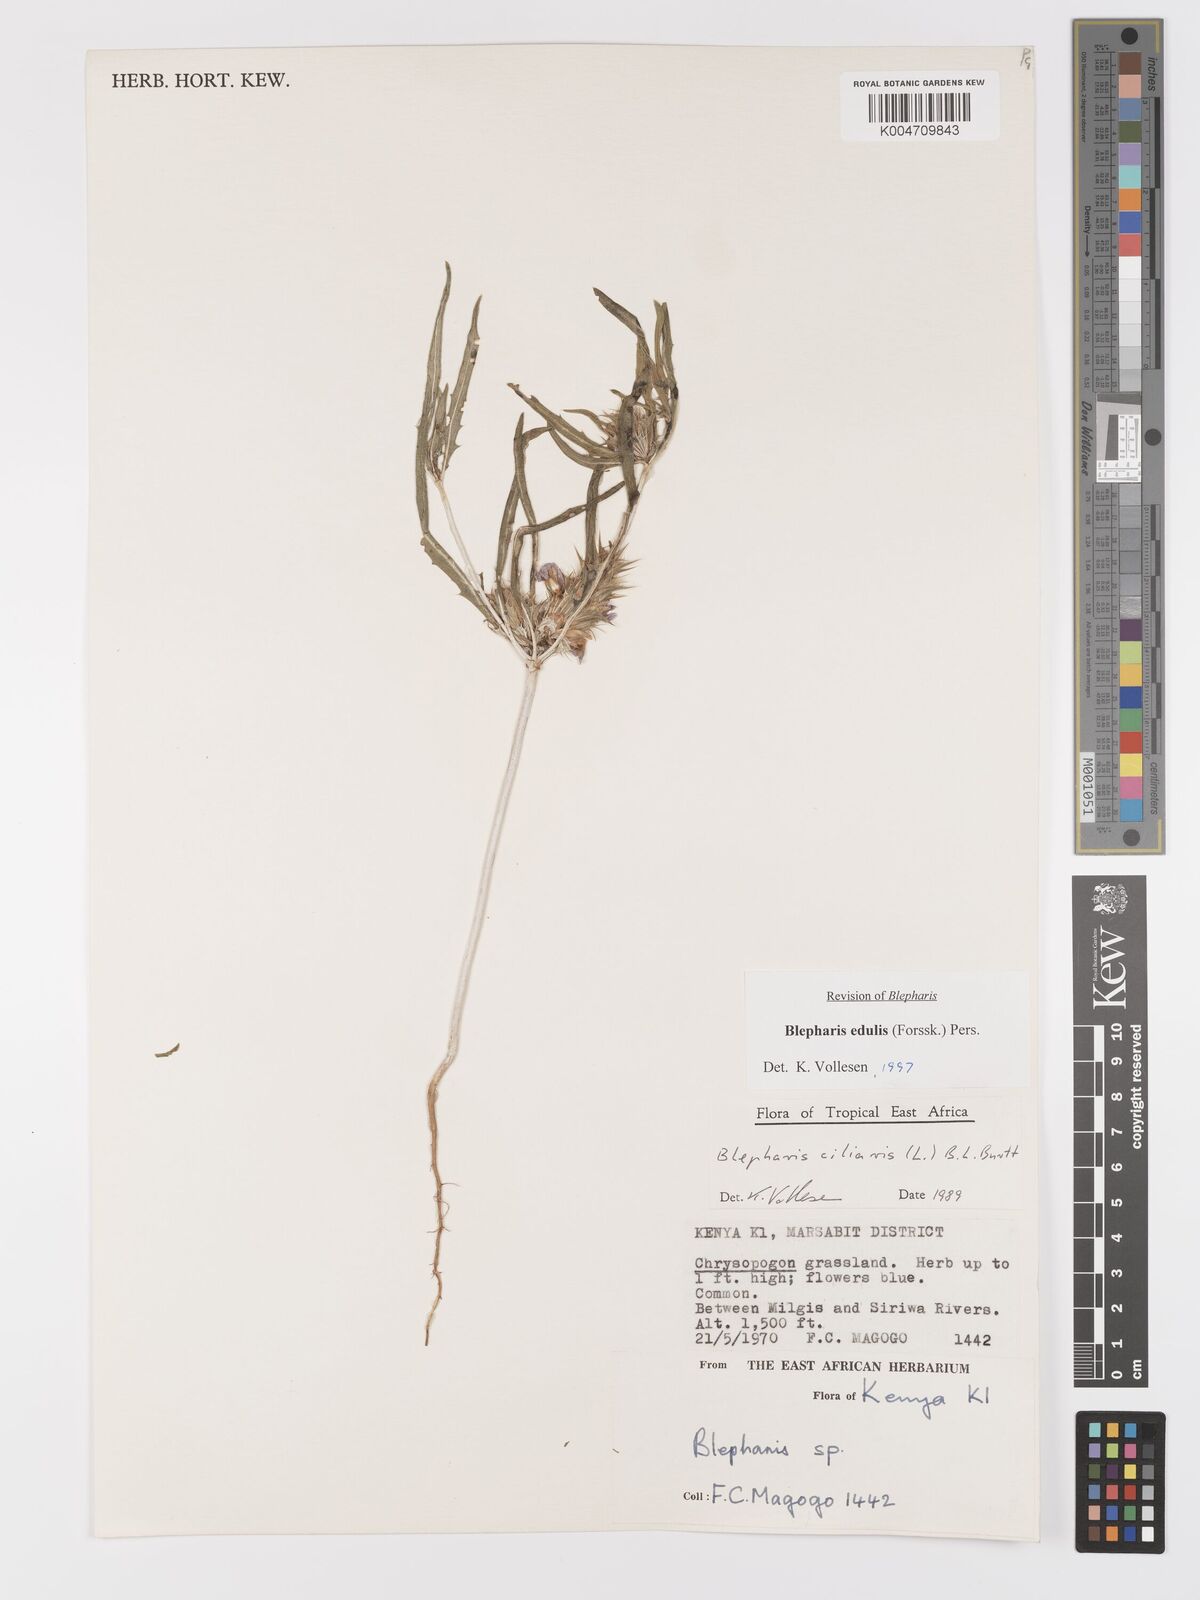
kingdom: Plantae
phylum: Tracheophyta
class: Magnoliopsida
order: Lamiales
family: Acanthaceae
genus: Blepharis
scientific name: Blepharis edulis
